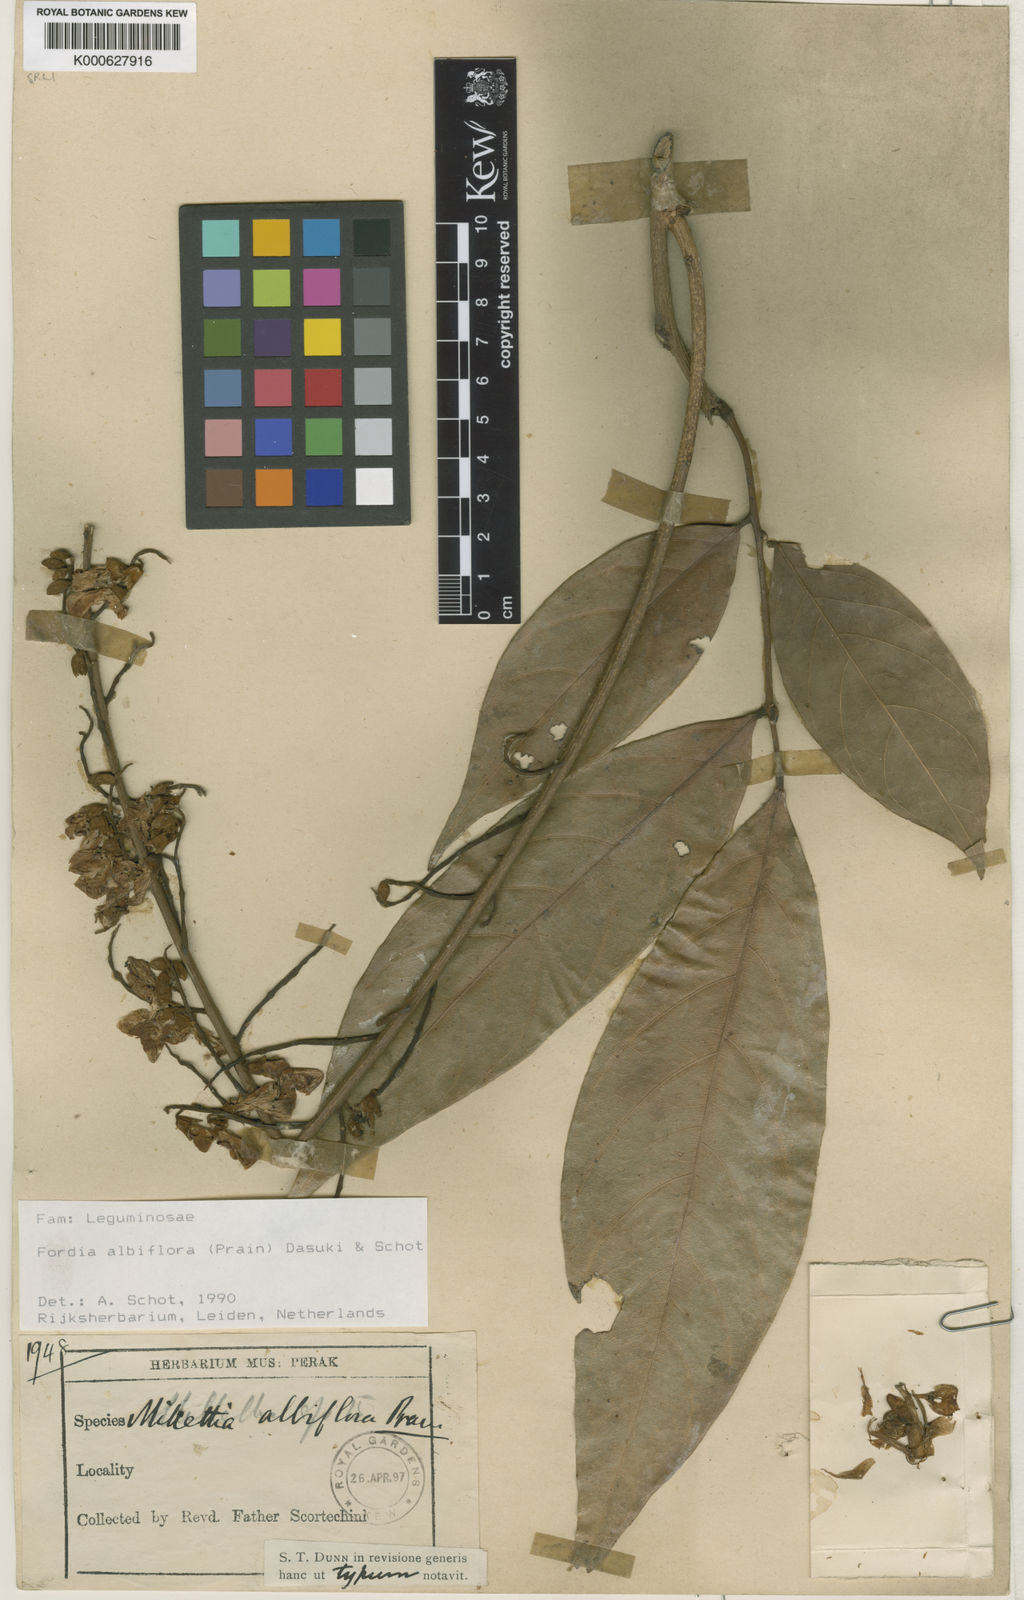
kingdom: Plantae
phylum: Tracheophyta
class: Magnoliopsida
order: Fabales
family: Fabaceae
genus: Imbralyx
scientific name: Imbralyx albiflorus
